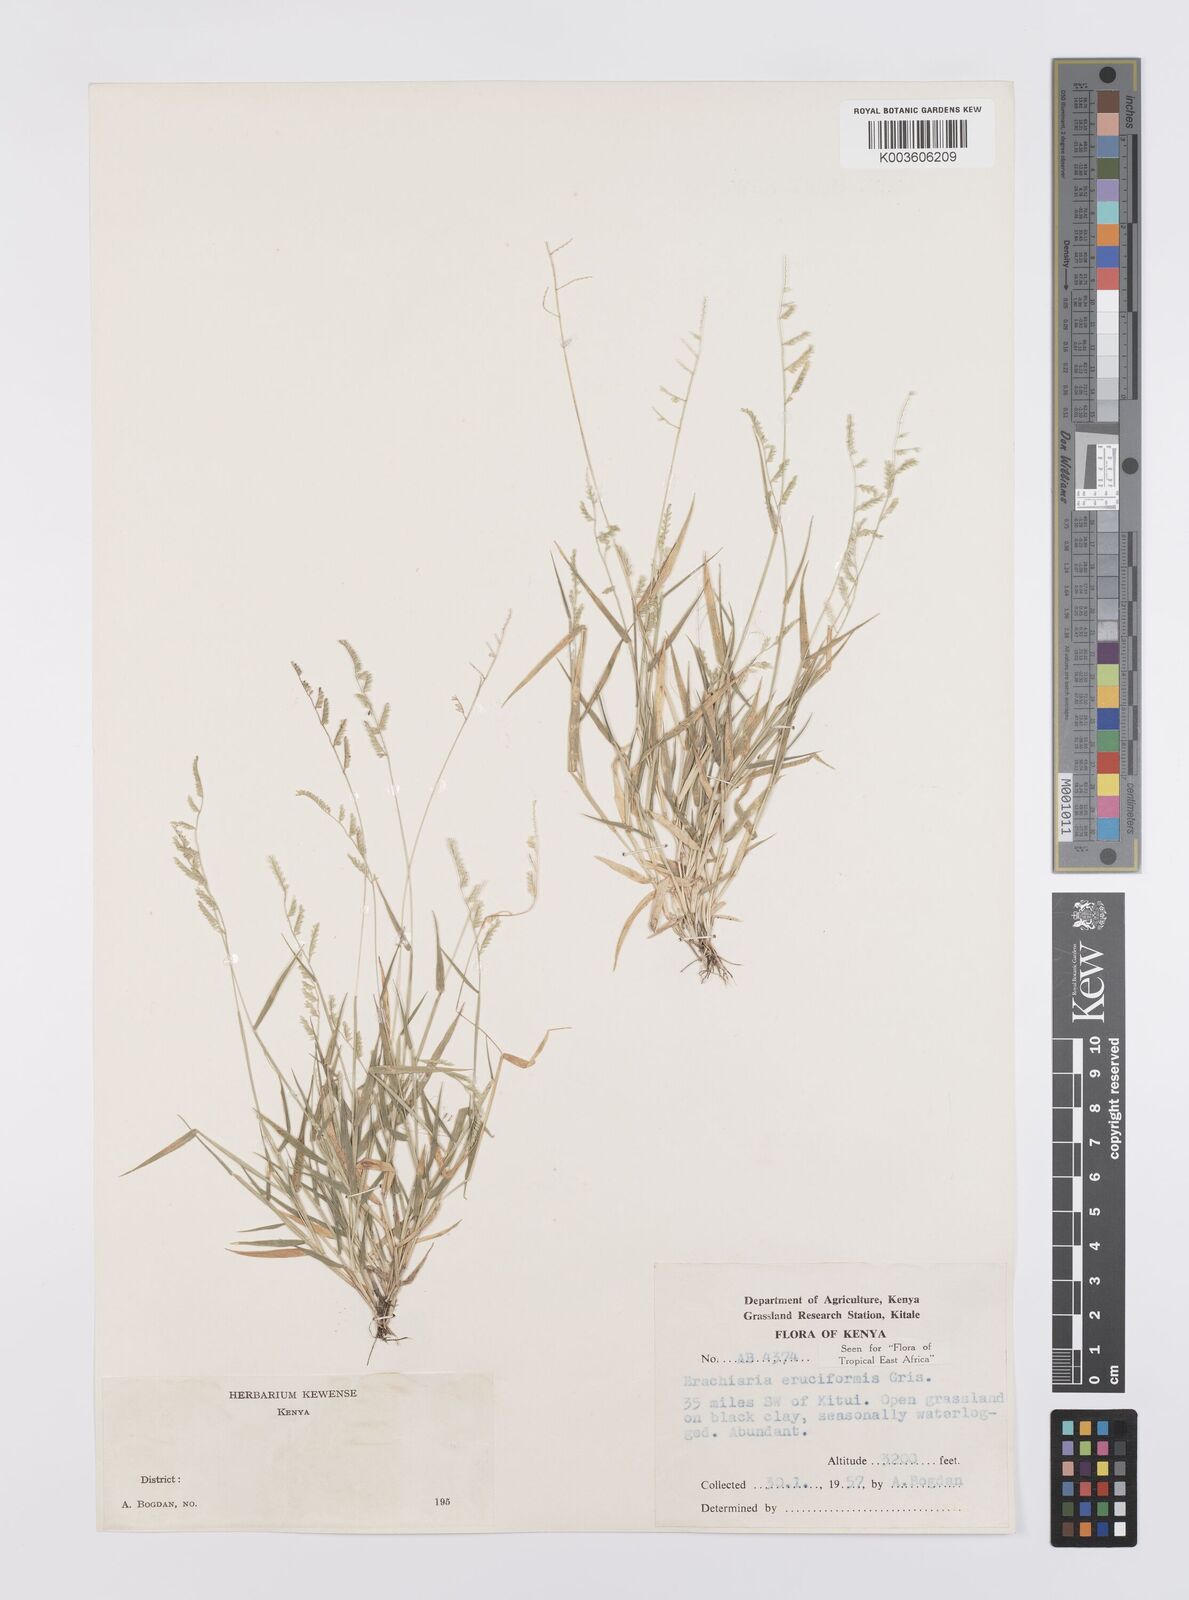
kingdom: Plantae
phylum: Tracheophyta
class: Liliopsida
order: Poales
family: Poaceae
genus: Moorochloa
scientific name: Moorochloa eruciformis
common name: Sweet signalgrass
